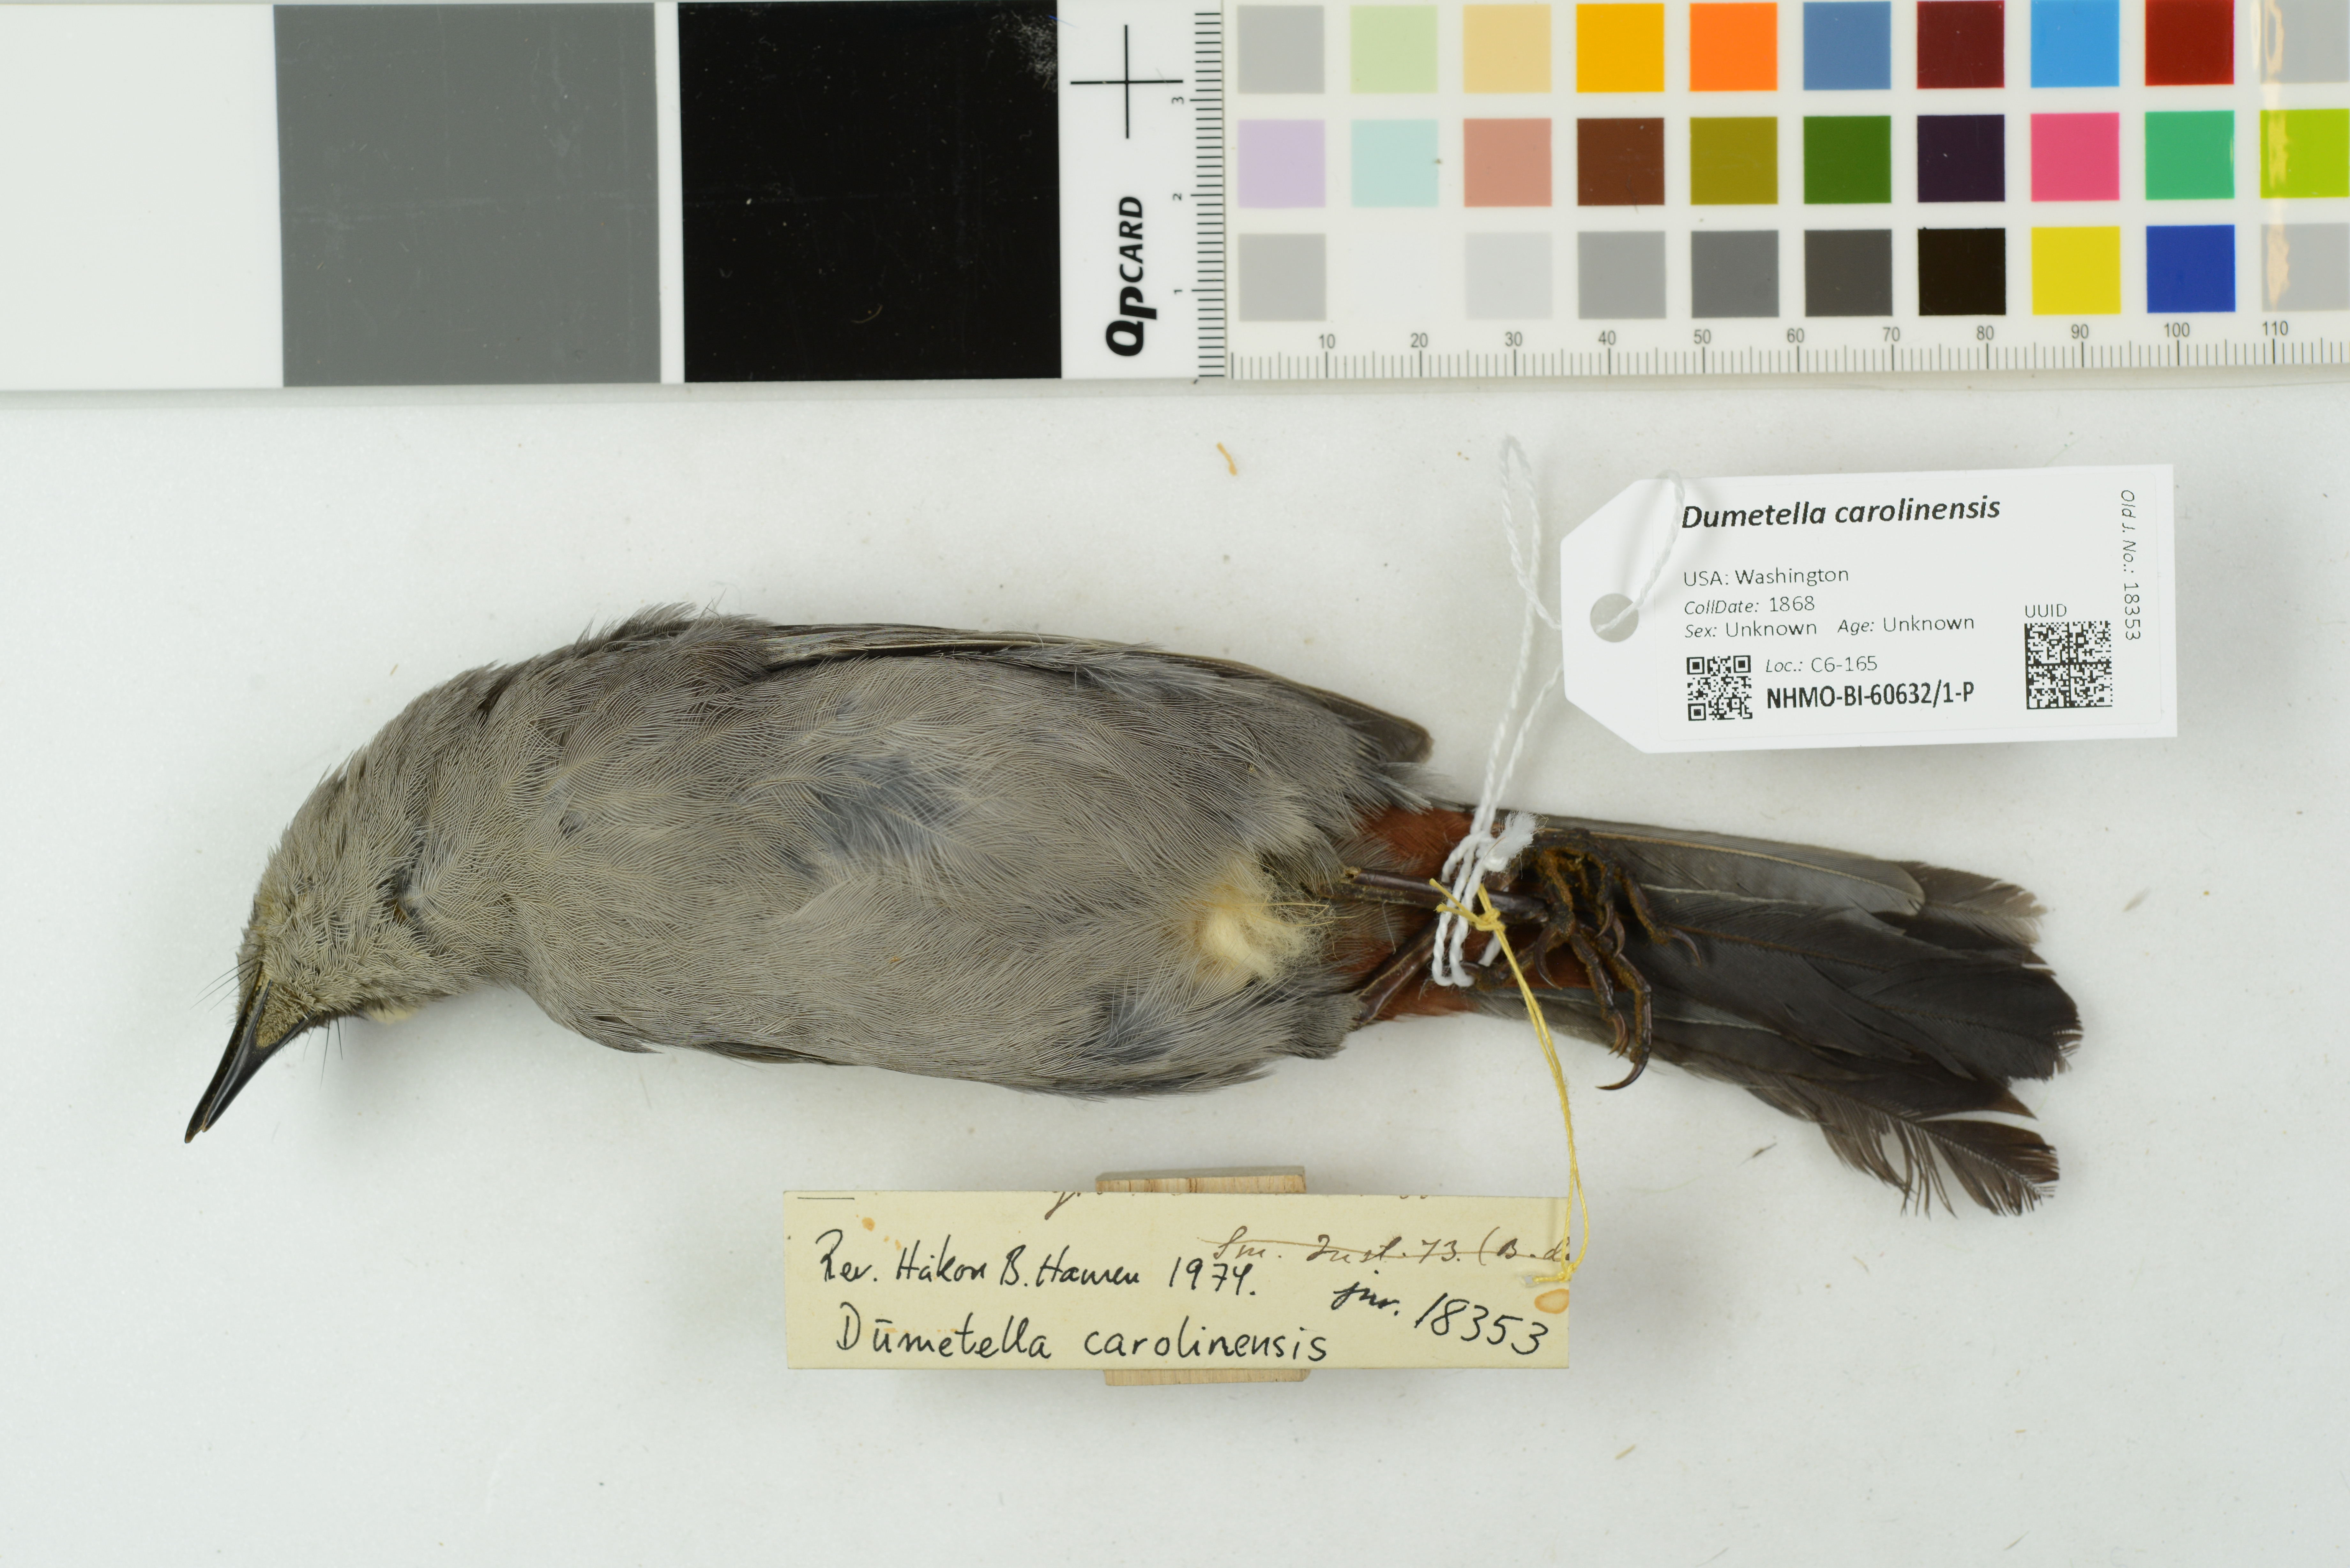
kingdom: Animalia
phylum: Chordata
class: Aves
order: Passeriformes
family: Mimidae
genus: Dumetella
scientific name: Dumetella carolinensis
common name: Gray catbird
